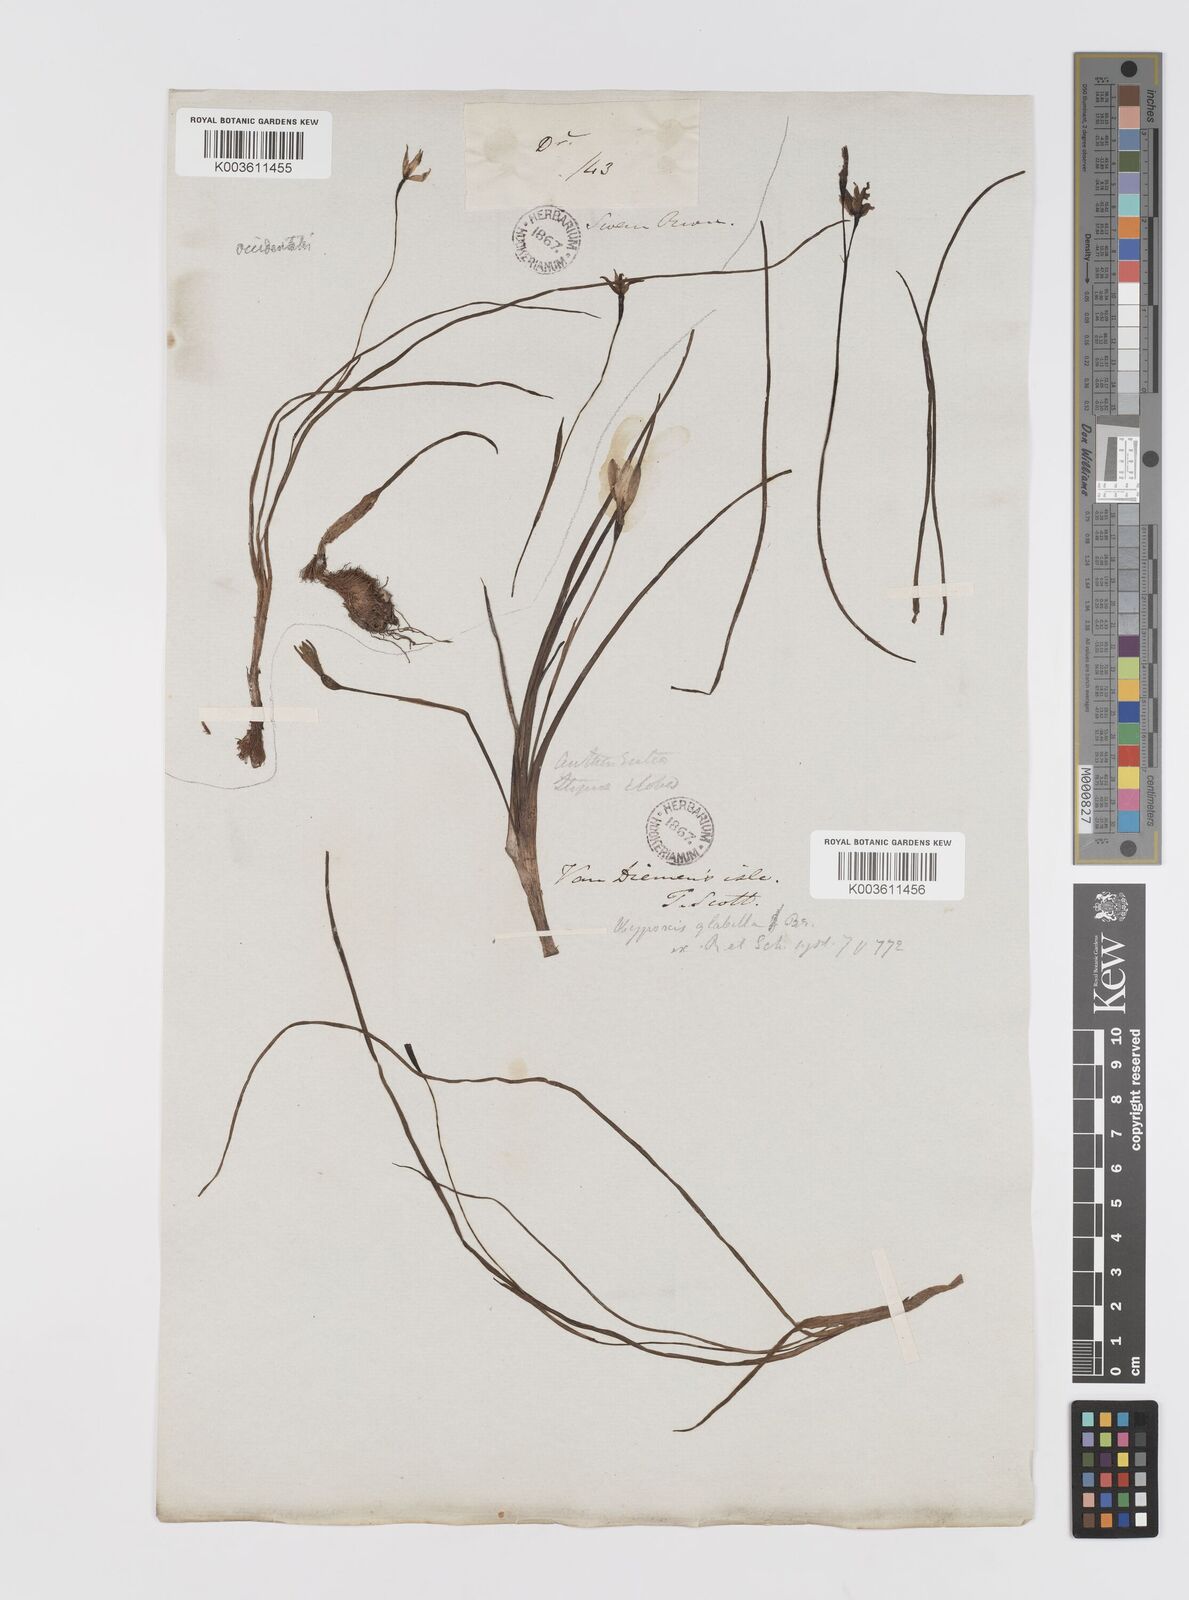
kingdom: Plantae
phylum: Tracheophyta
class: Liliopsida
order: Asparagales
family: Hypoxidaceae
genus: Pauridia
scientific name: Pauridia glabella
